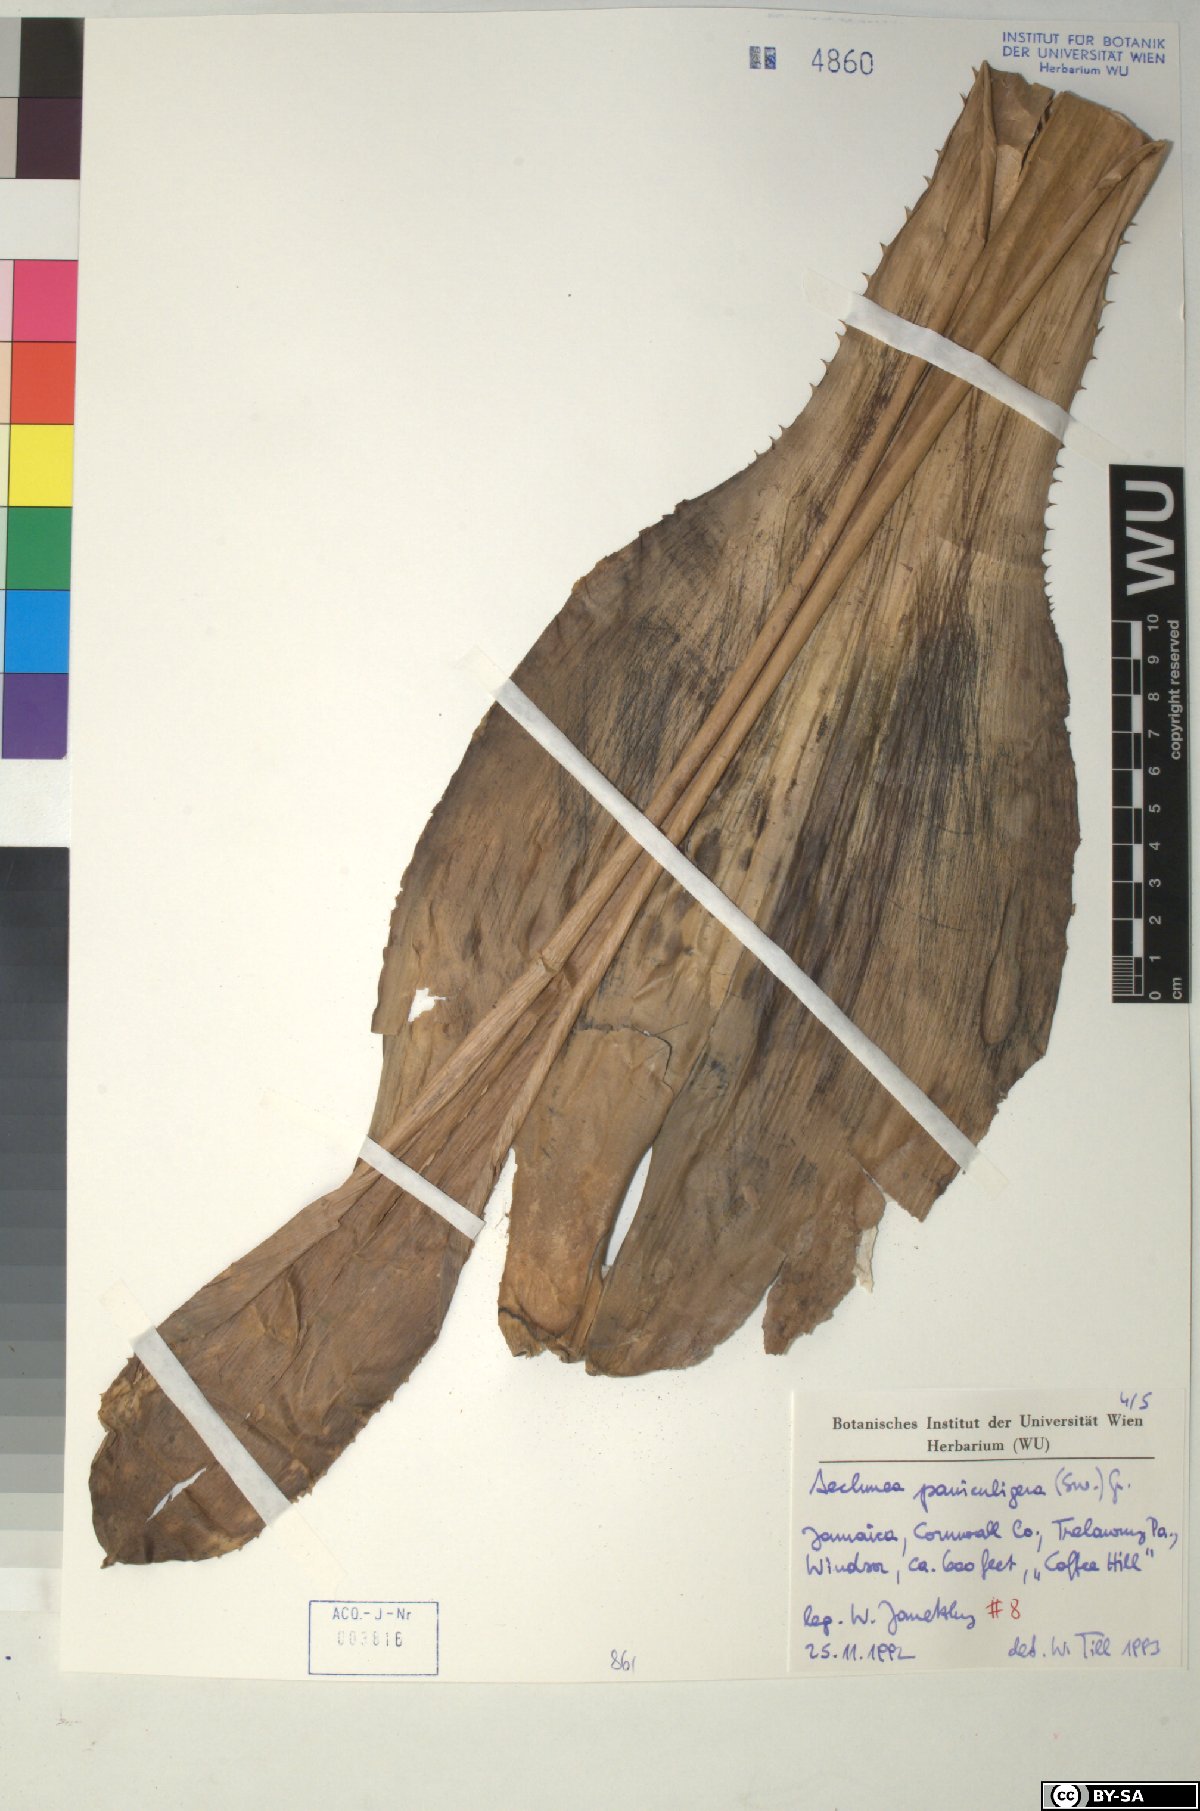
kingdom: Plantae
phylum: Tracheophyta
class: Liliopsida
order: Poales
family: Bromeliaceae
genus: Aechmea
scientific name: Aechmea paniculigera
